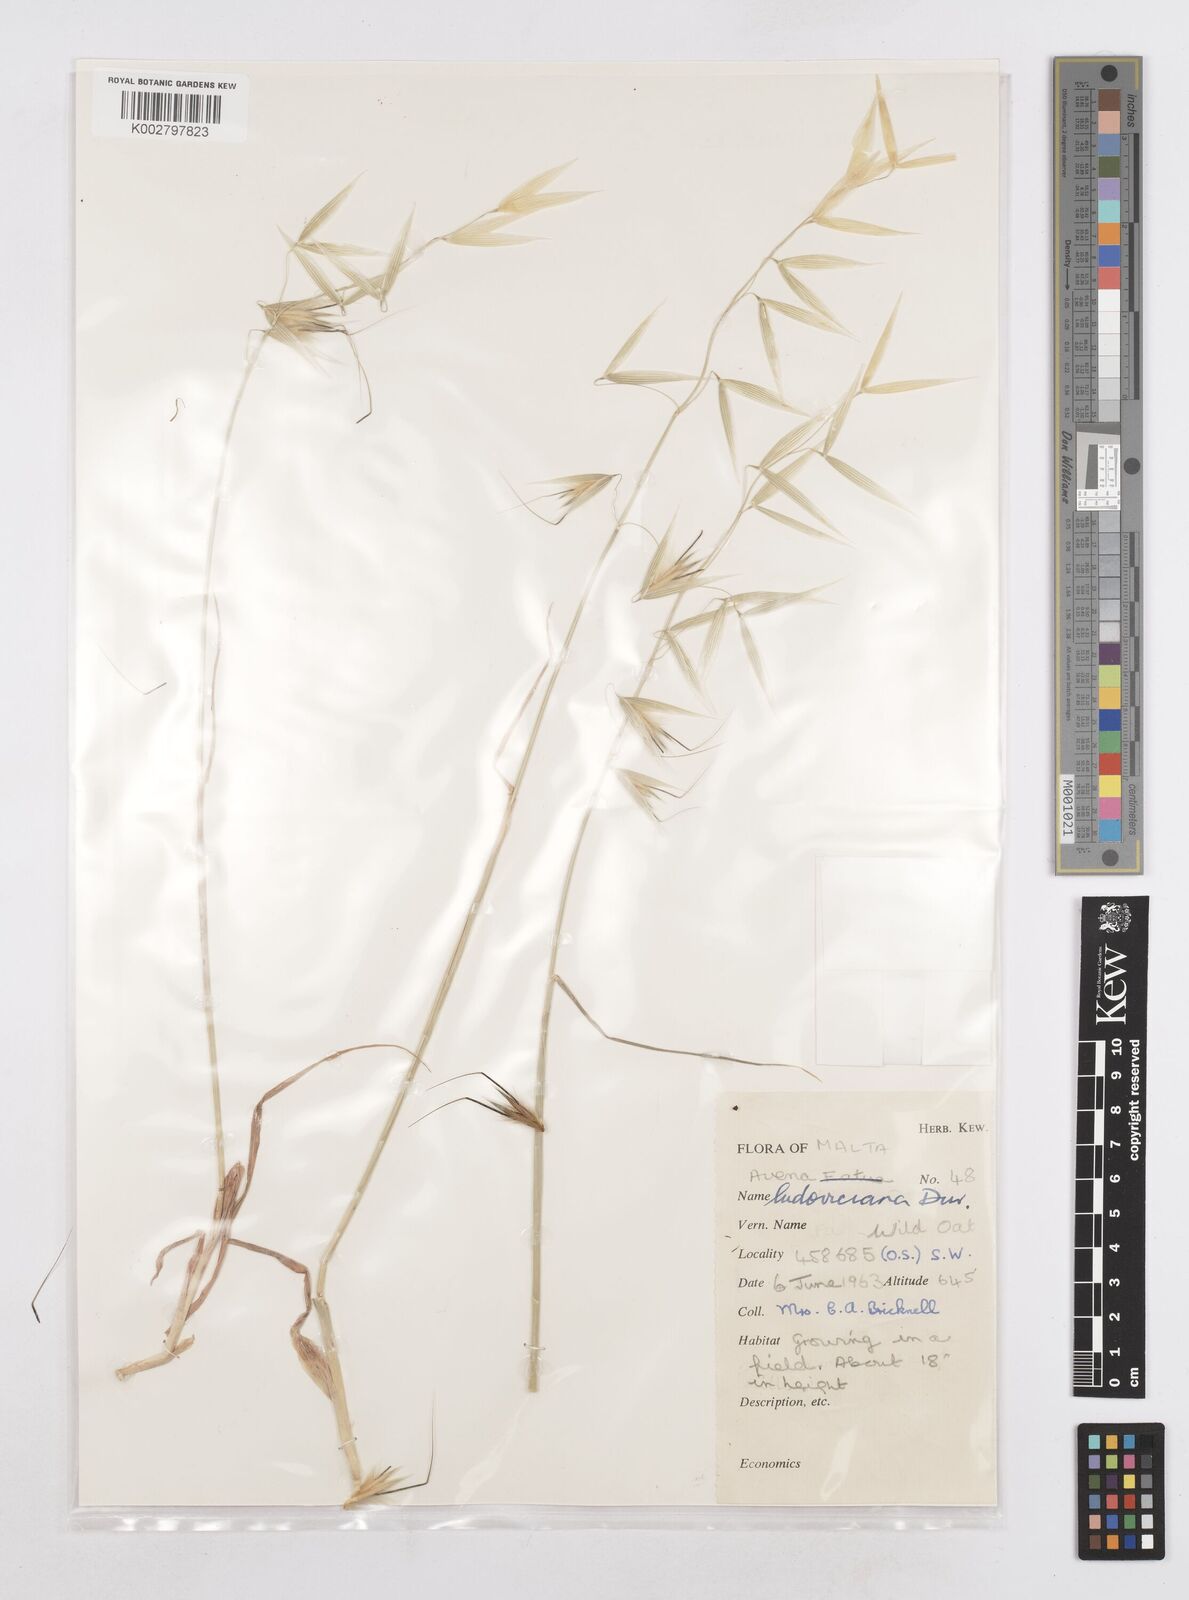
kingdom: Plantae
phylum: Tracheophyta
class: Liliopsida
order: Poales
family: Poaceae
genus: Avena
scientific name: Avena sterilis
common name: Animated oat
